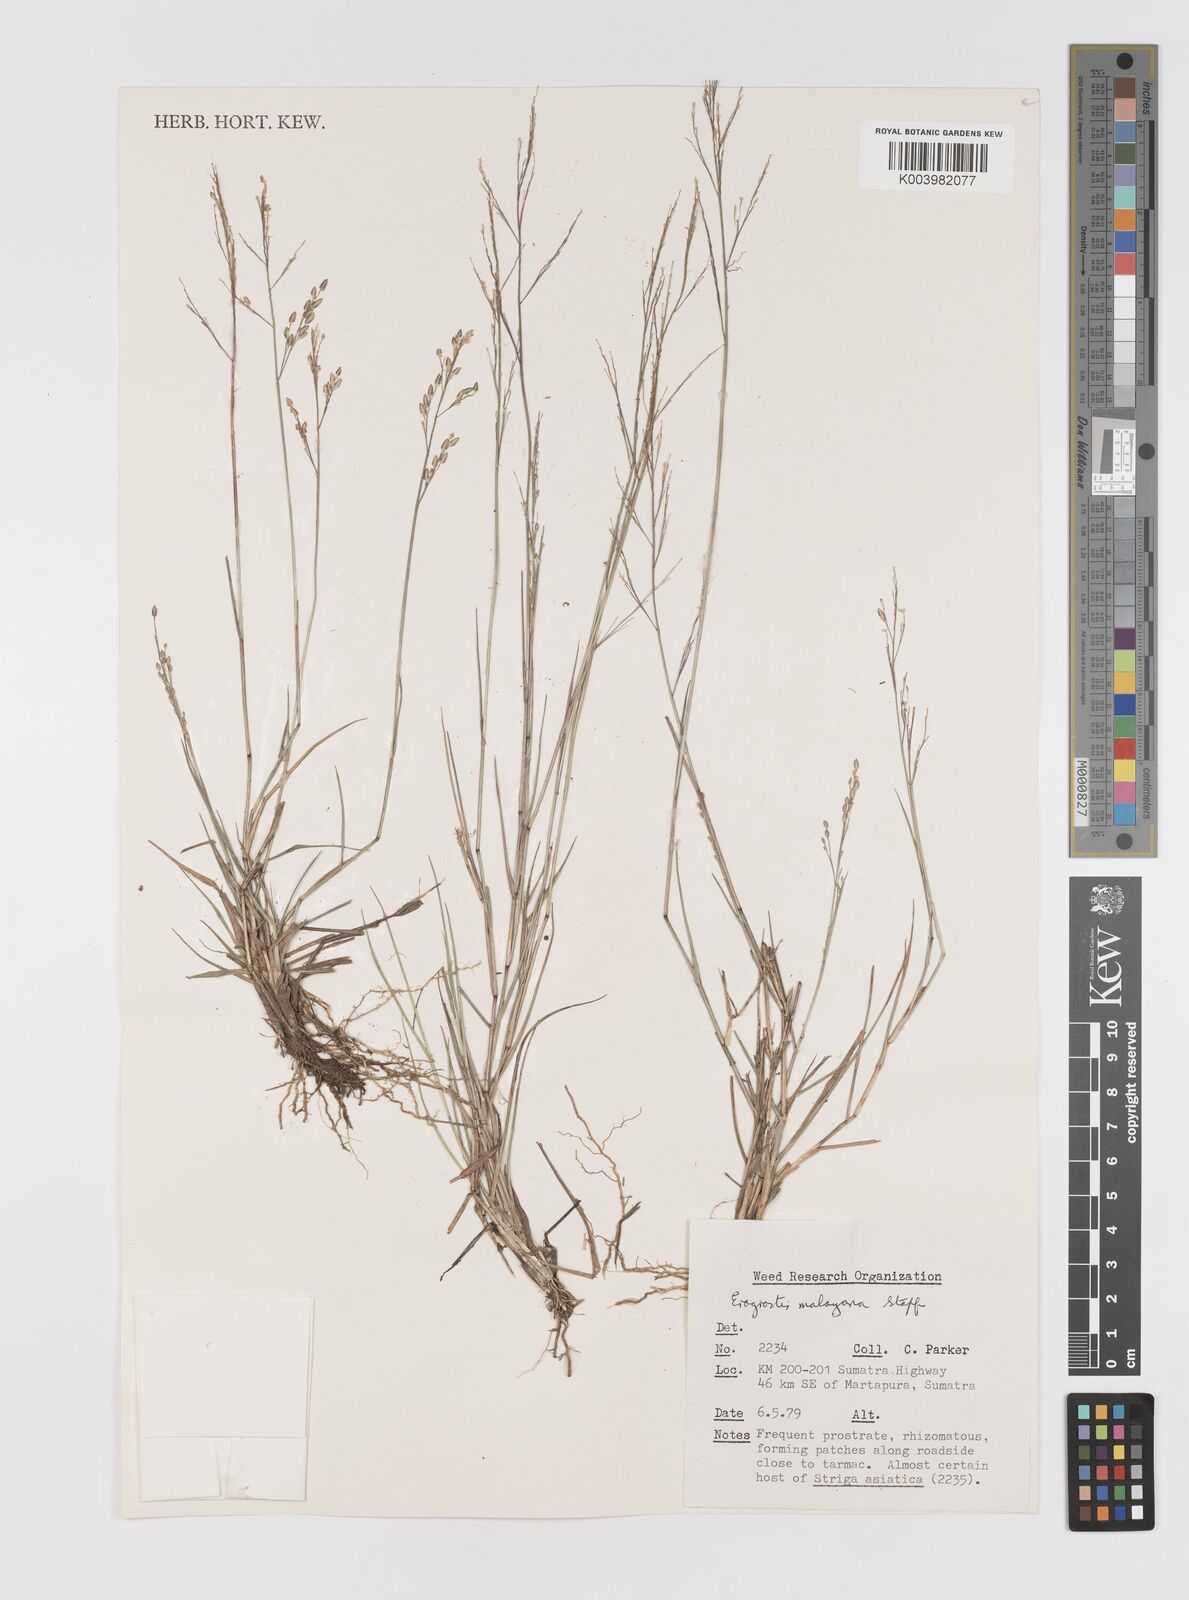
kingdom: Plantae
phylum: Tracheophyta
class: Liliopsida
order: Poales
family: Poaceae
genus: Eragrostis
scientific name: Eragrostis montana
